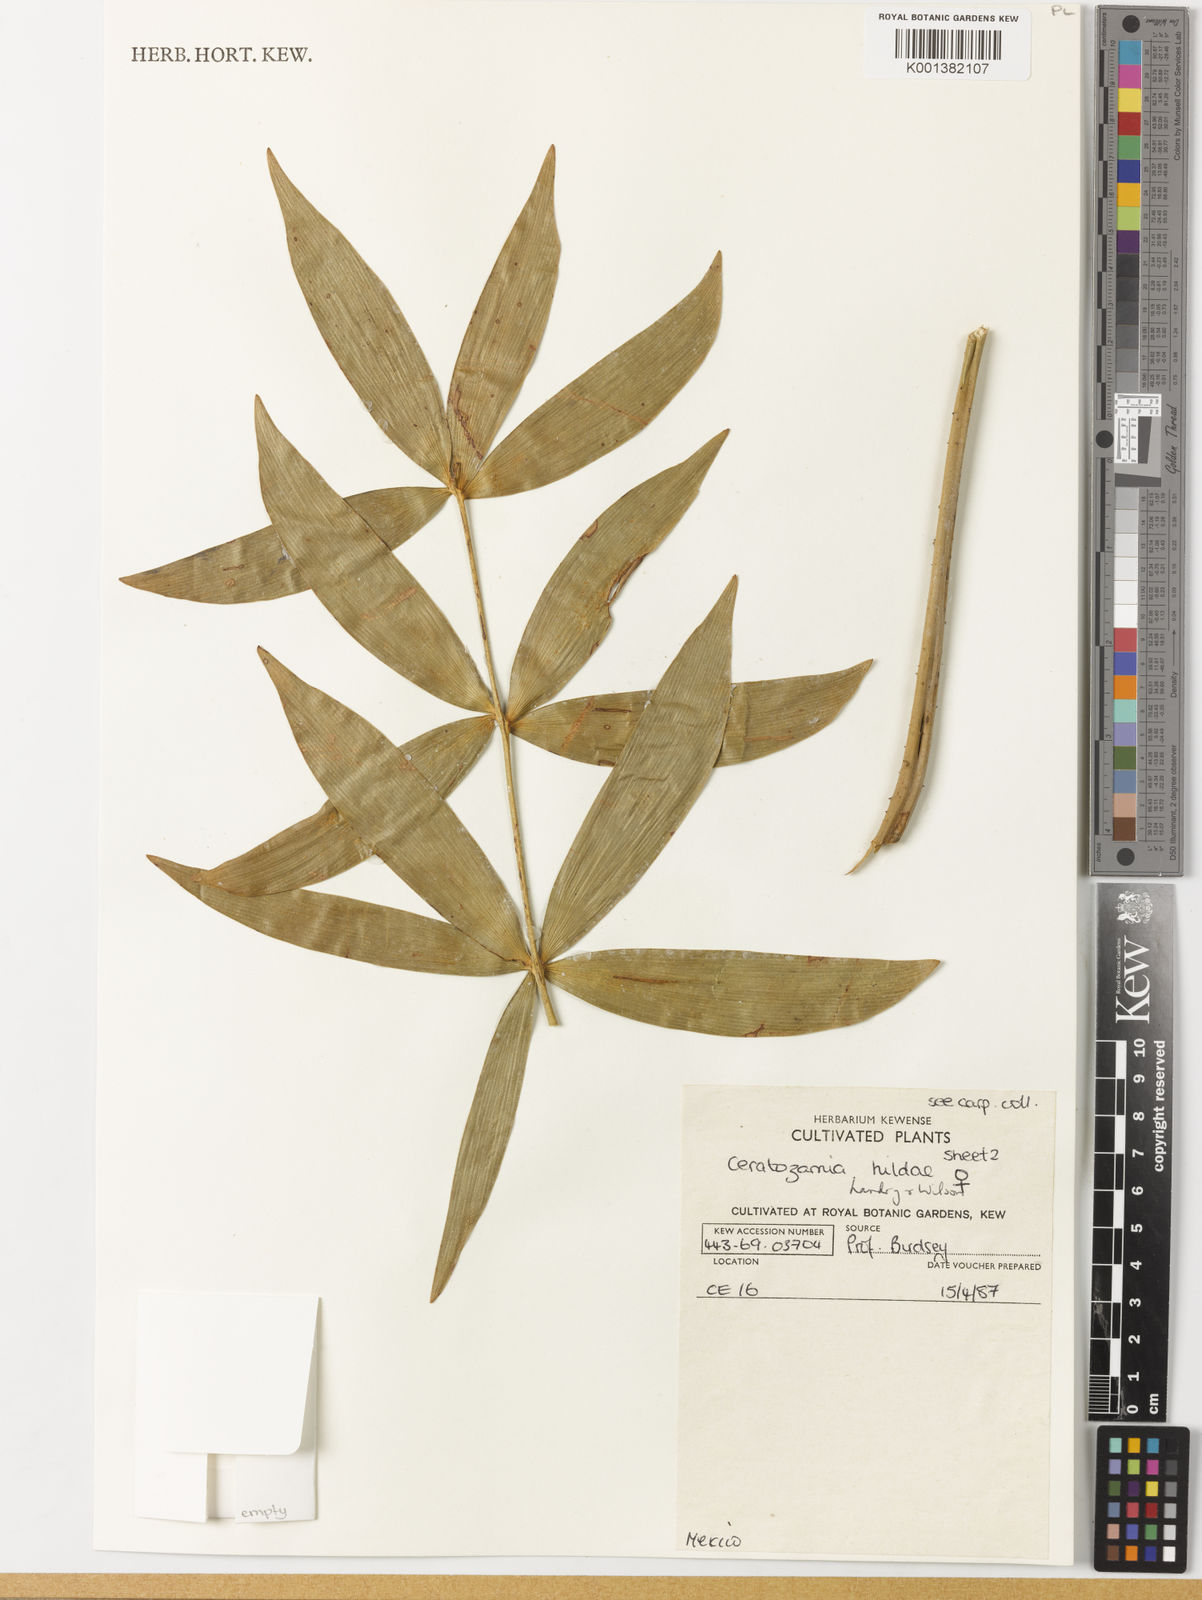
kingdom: Plantae
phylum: Tracheophyta
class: Cycadopsida
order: Cycadales
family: Zamiaceae
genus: Ceratozamia
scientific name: Ceratozamia hildae
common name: Bamboo cycad
